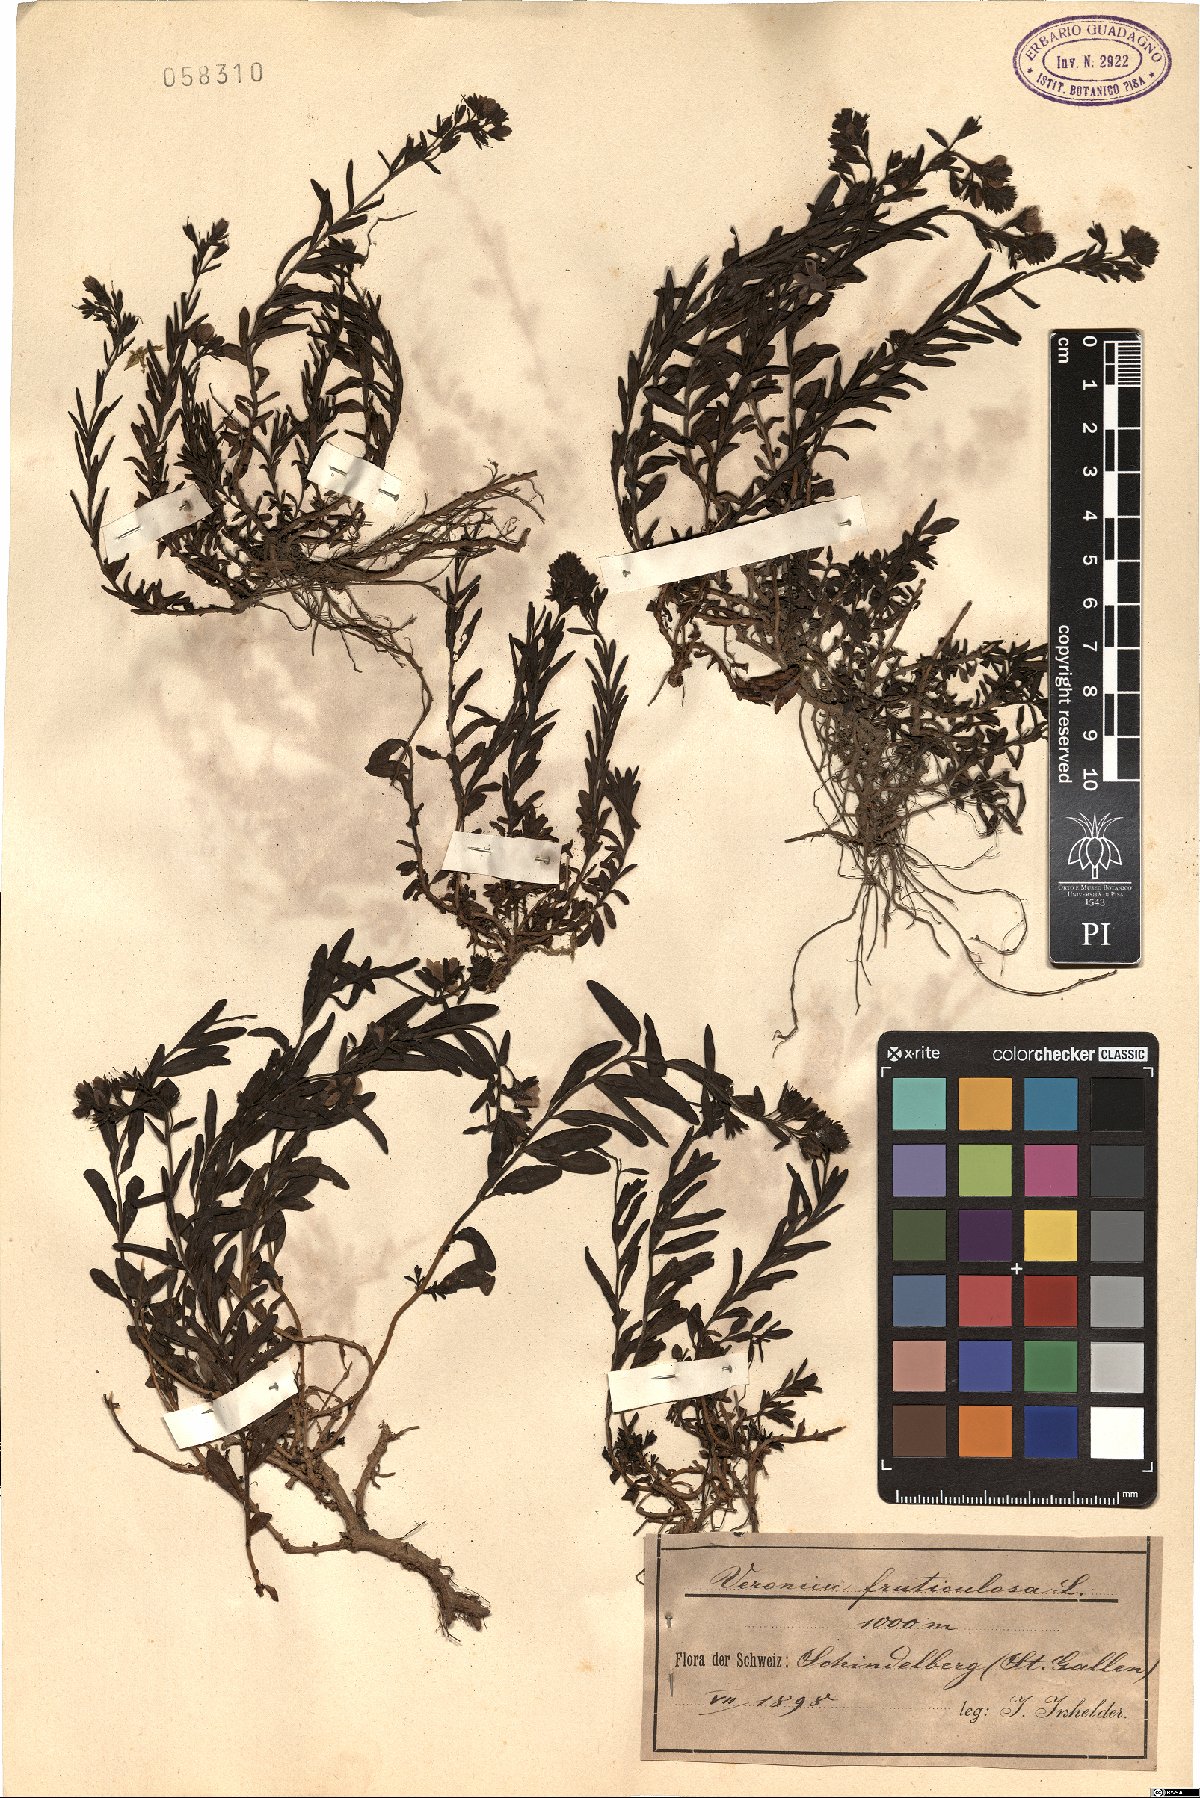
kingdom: Plantae
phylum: Tracheophyta
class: Magnoliopsida
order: Lamiales
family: Plantaginaceae
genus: Veronica
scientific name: Veronica fruticulosa
